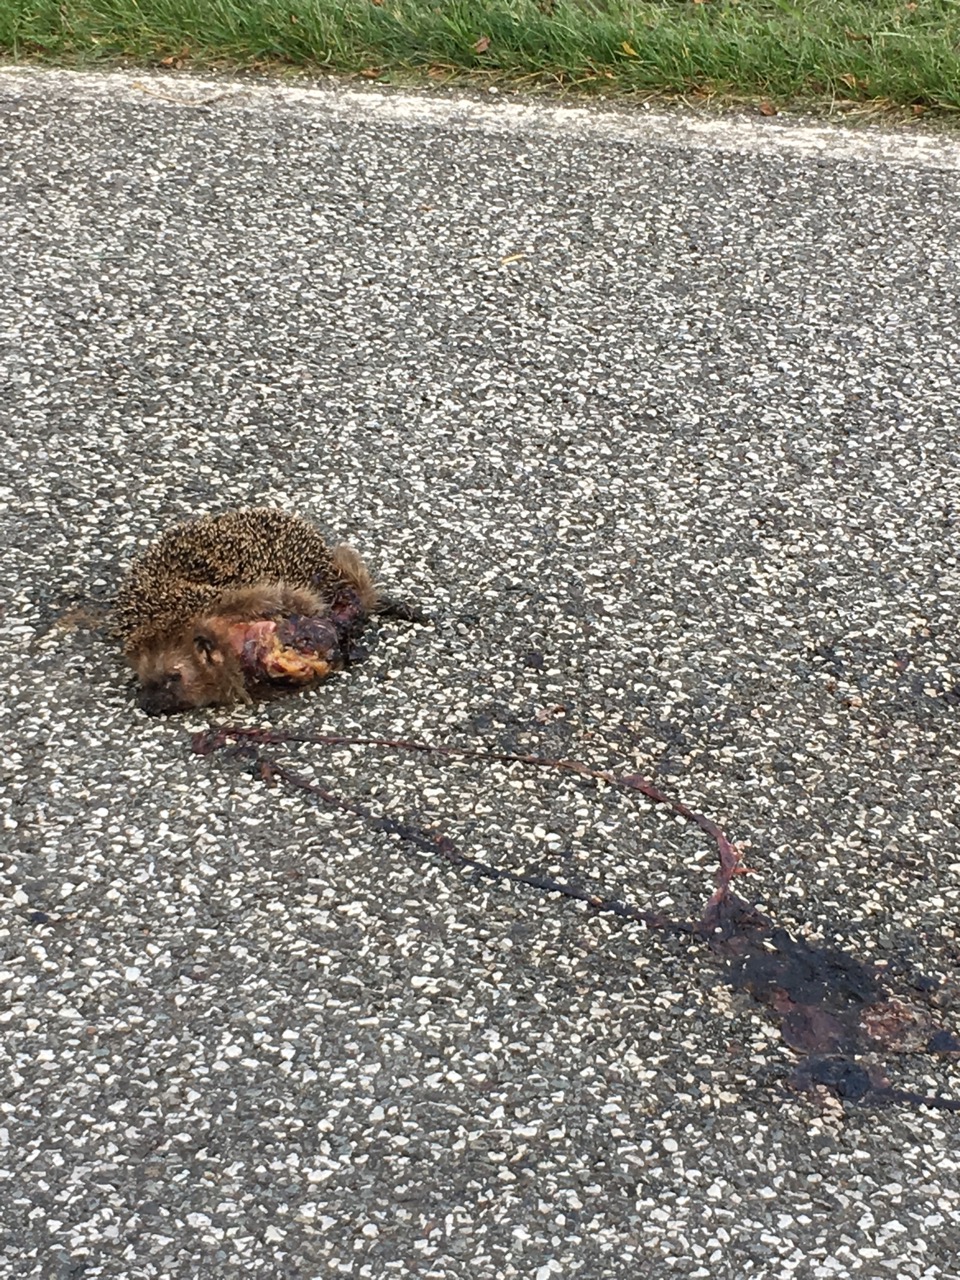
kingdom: Animalia
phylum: Chordata
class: Mammalia
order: Erinaceomorpha
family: Erinaceidae
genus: Erinaceus
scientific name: Erinaceus
